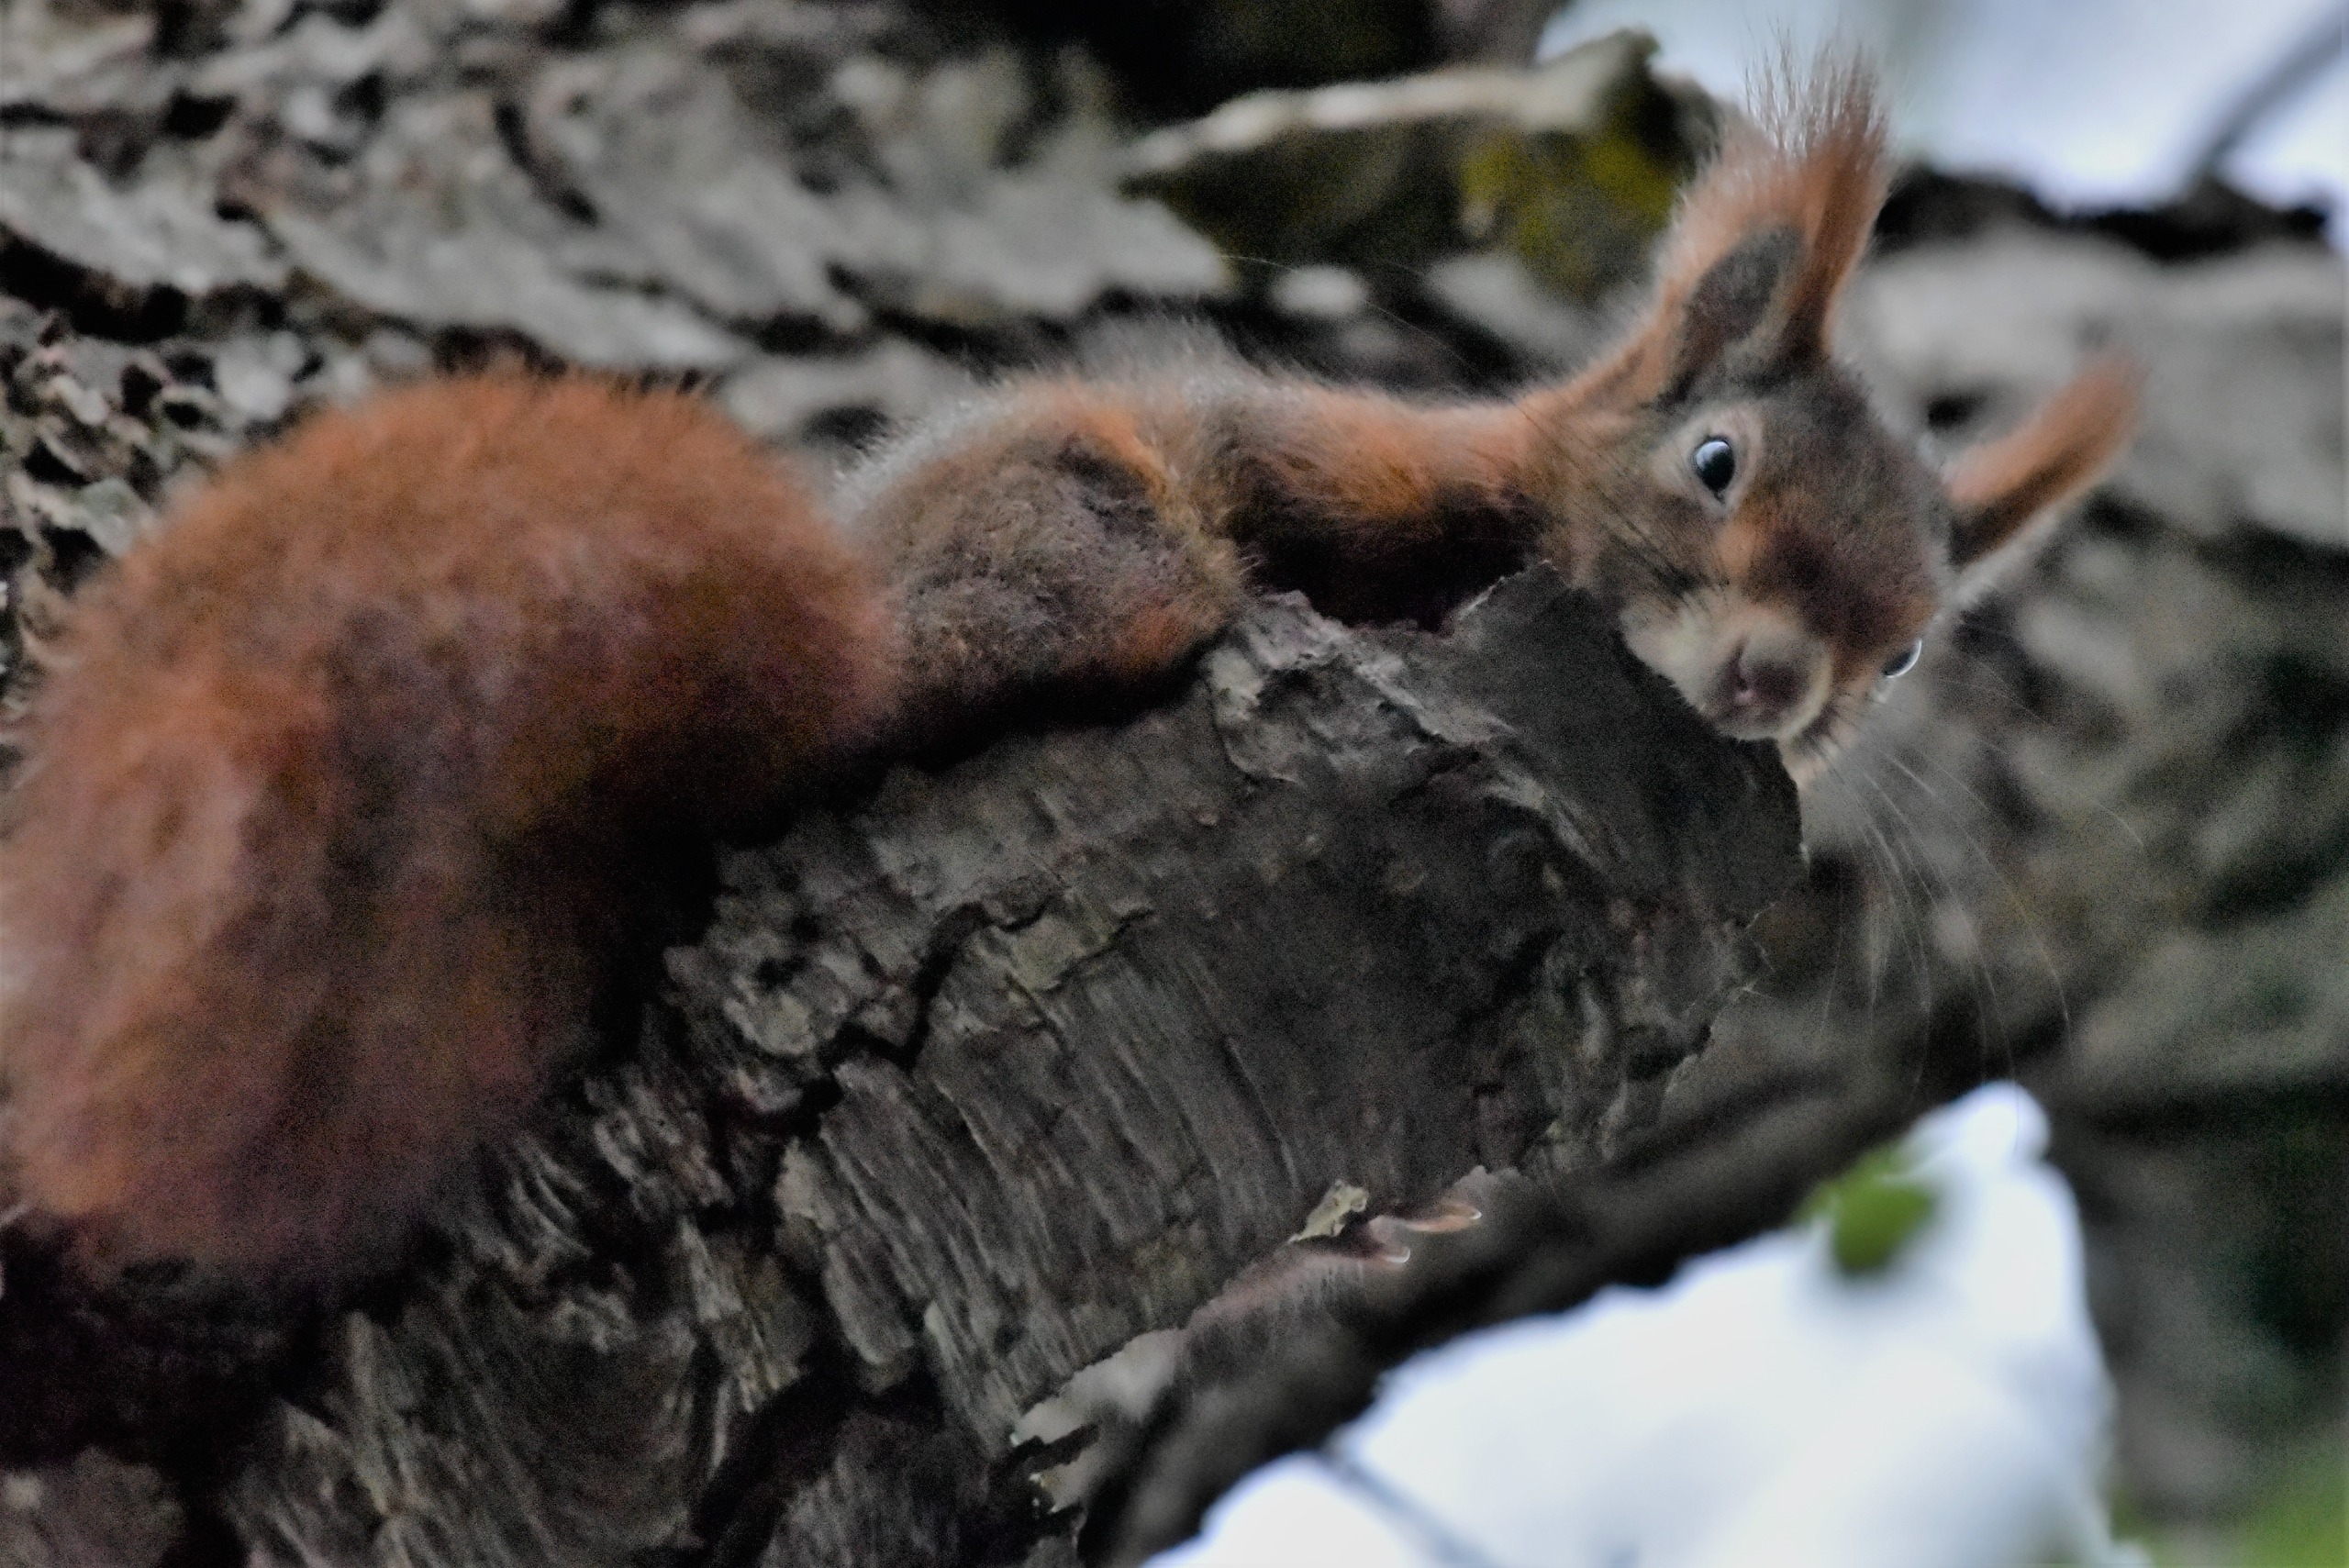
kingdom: Animalia
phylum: Chordata
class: Mammalia
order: Rodentia
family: Sciuridae
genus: Sciurus
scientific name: Sciurus vulgaris
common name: Egern
